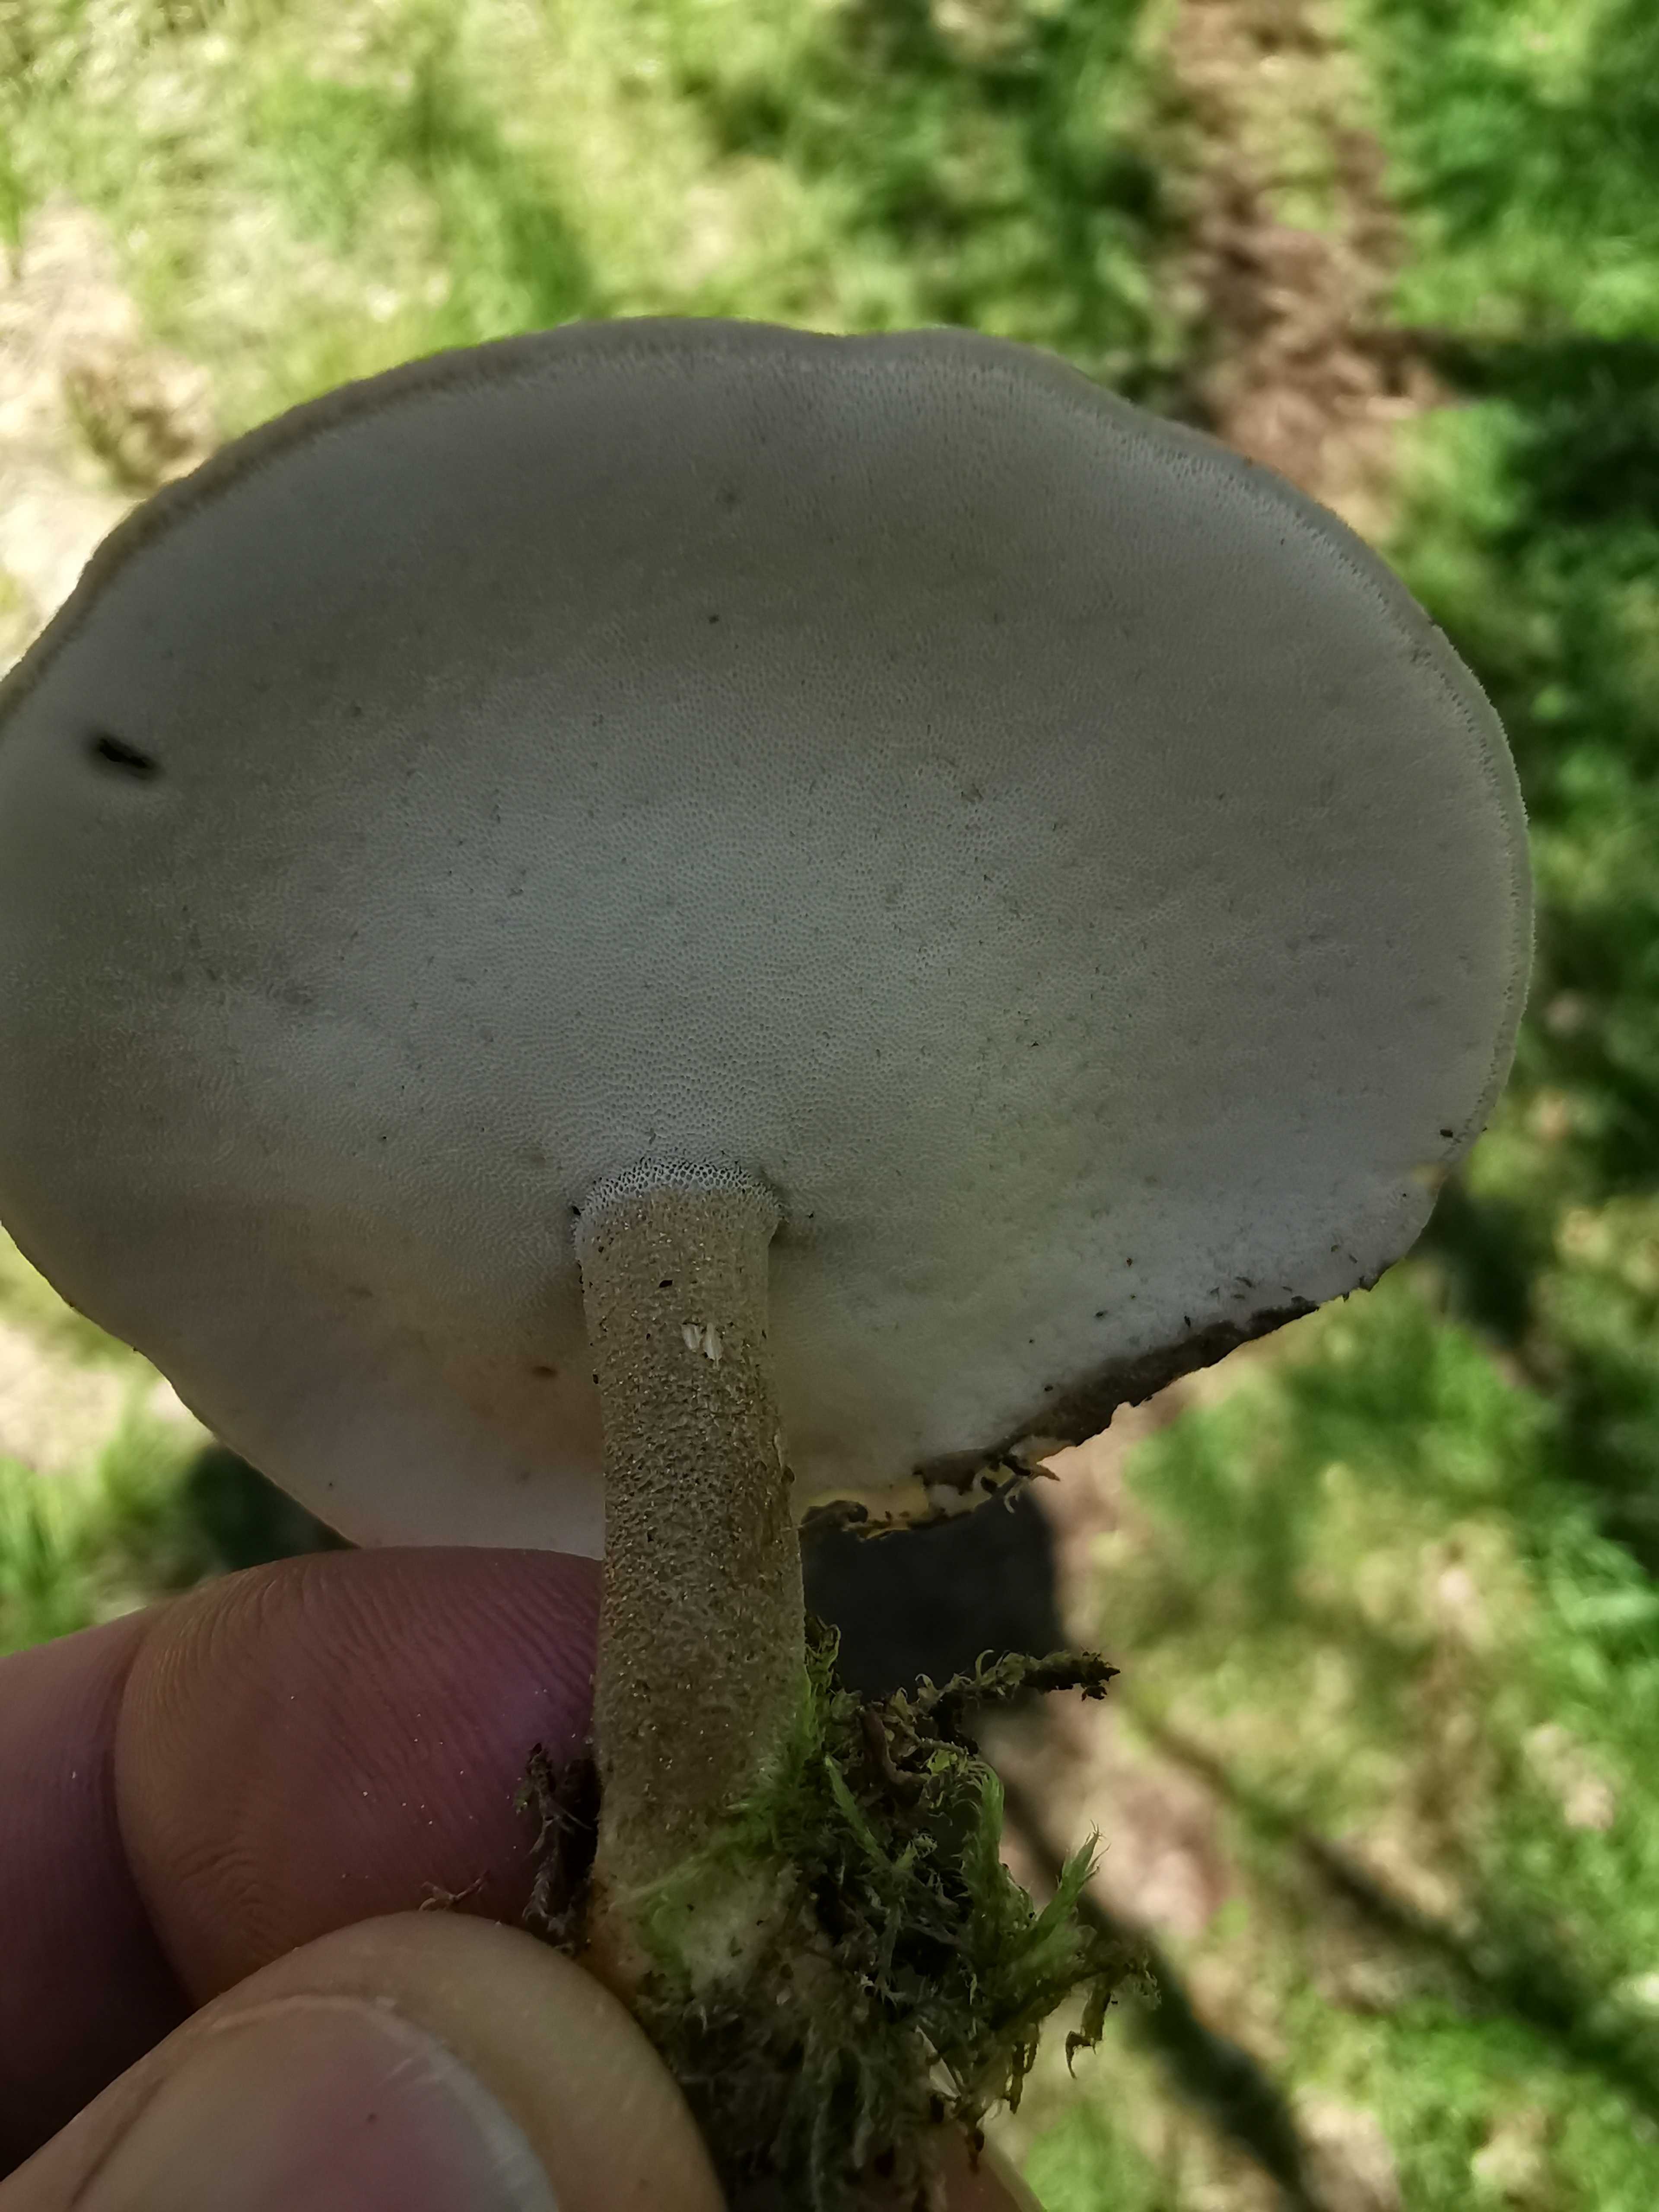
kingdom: Fungi
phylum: Basidiomycota
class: Agaricomycetes
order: Polyporales
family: Polyporaceae
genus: Lentinus
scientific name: Lentinus substrictus
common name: forårs-stilkporesvamp
